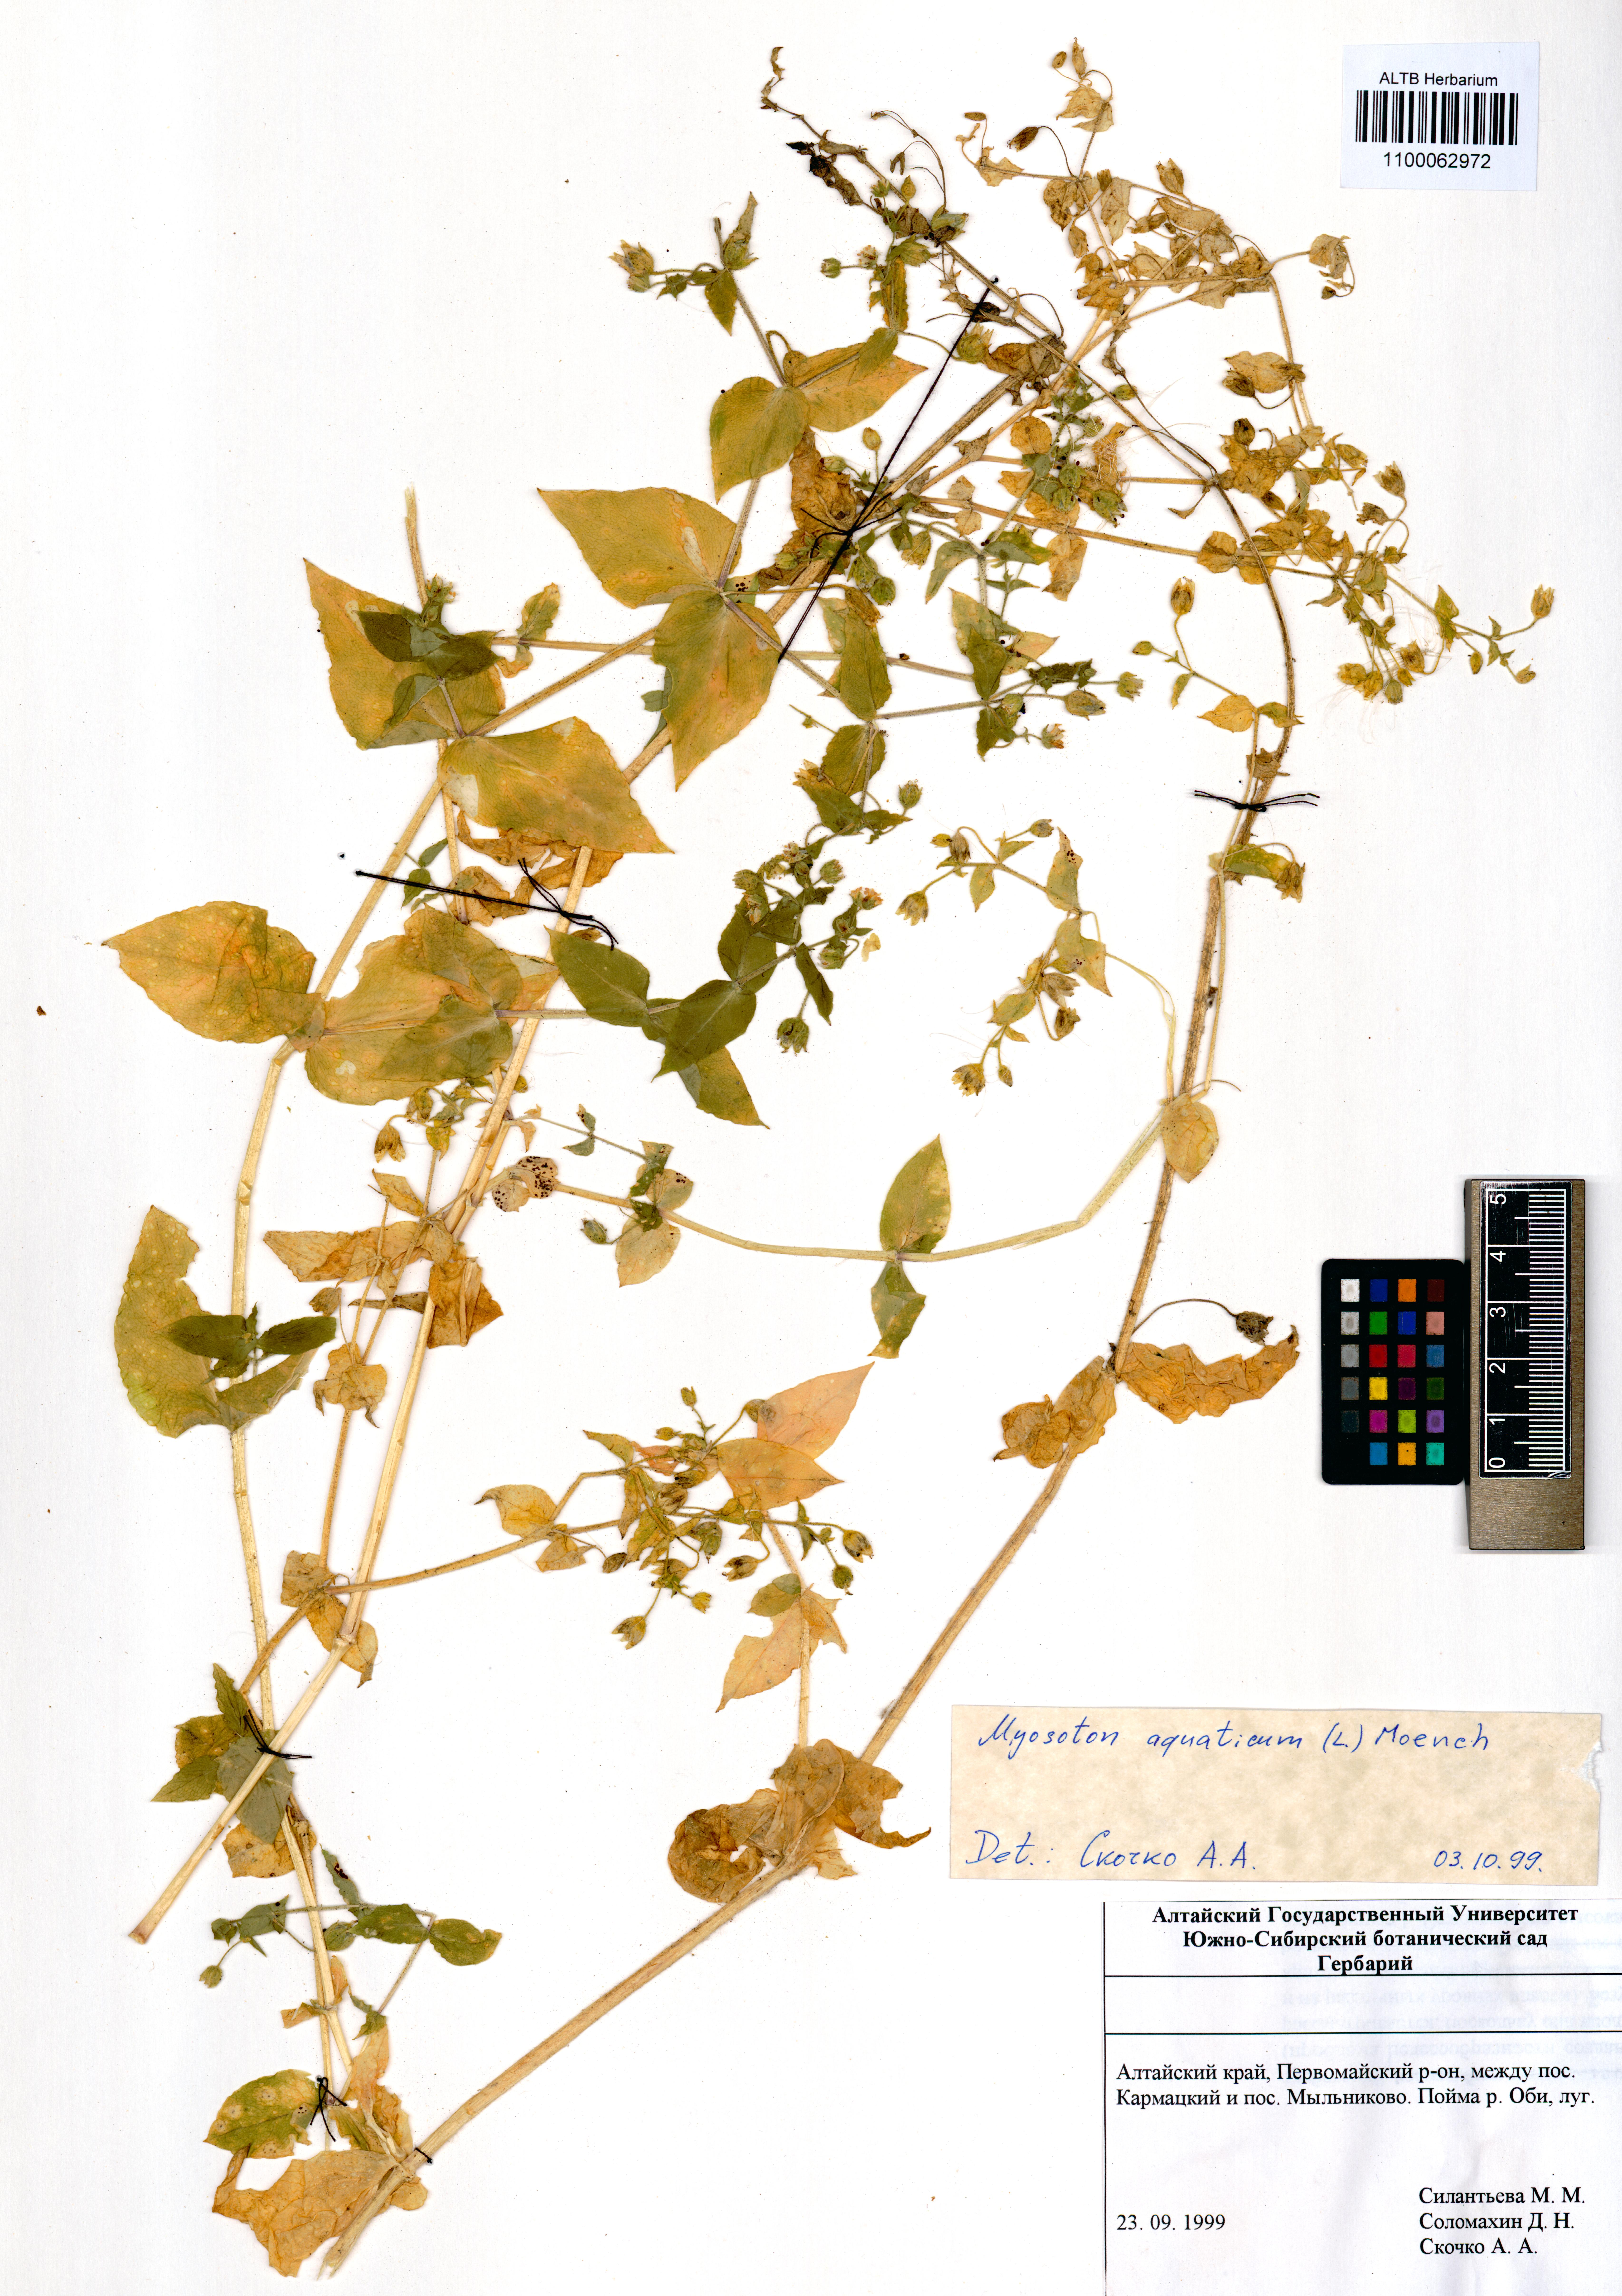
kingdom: Plantae
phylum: Tracheophyta
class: Magnoliopsida
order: Caryophyllales
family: Caryophyllaceae
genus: Stellaria
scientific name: Stellaria aquatica
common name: Water chickweed
